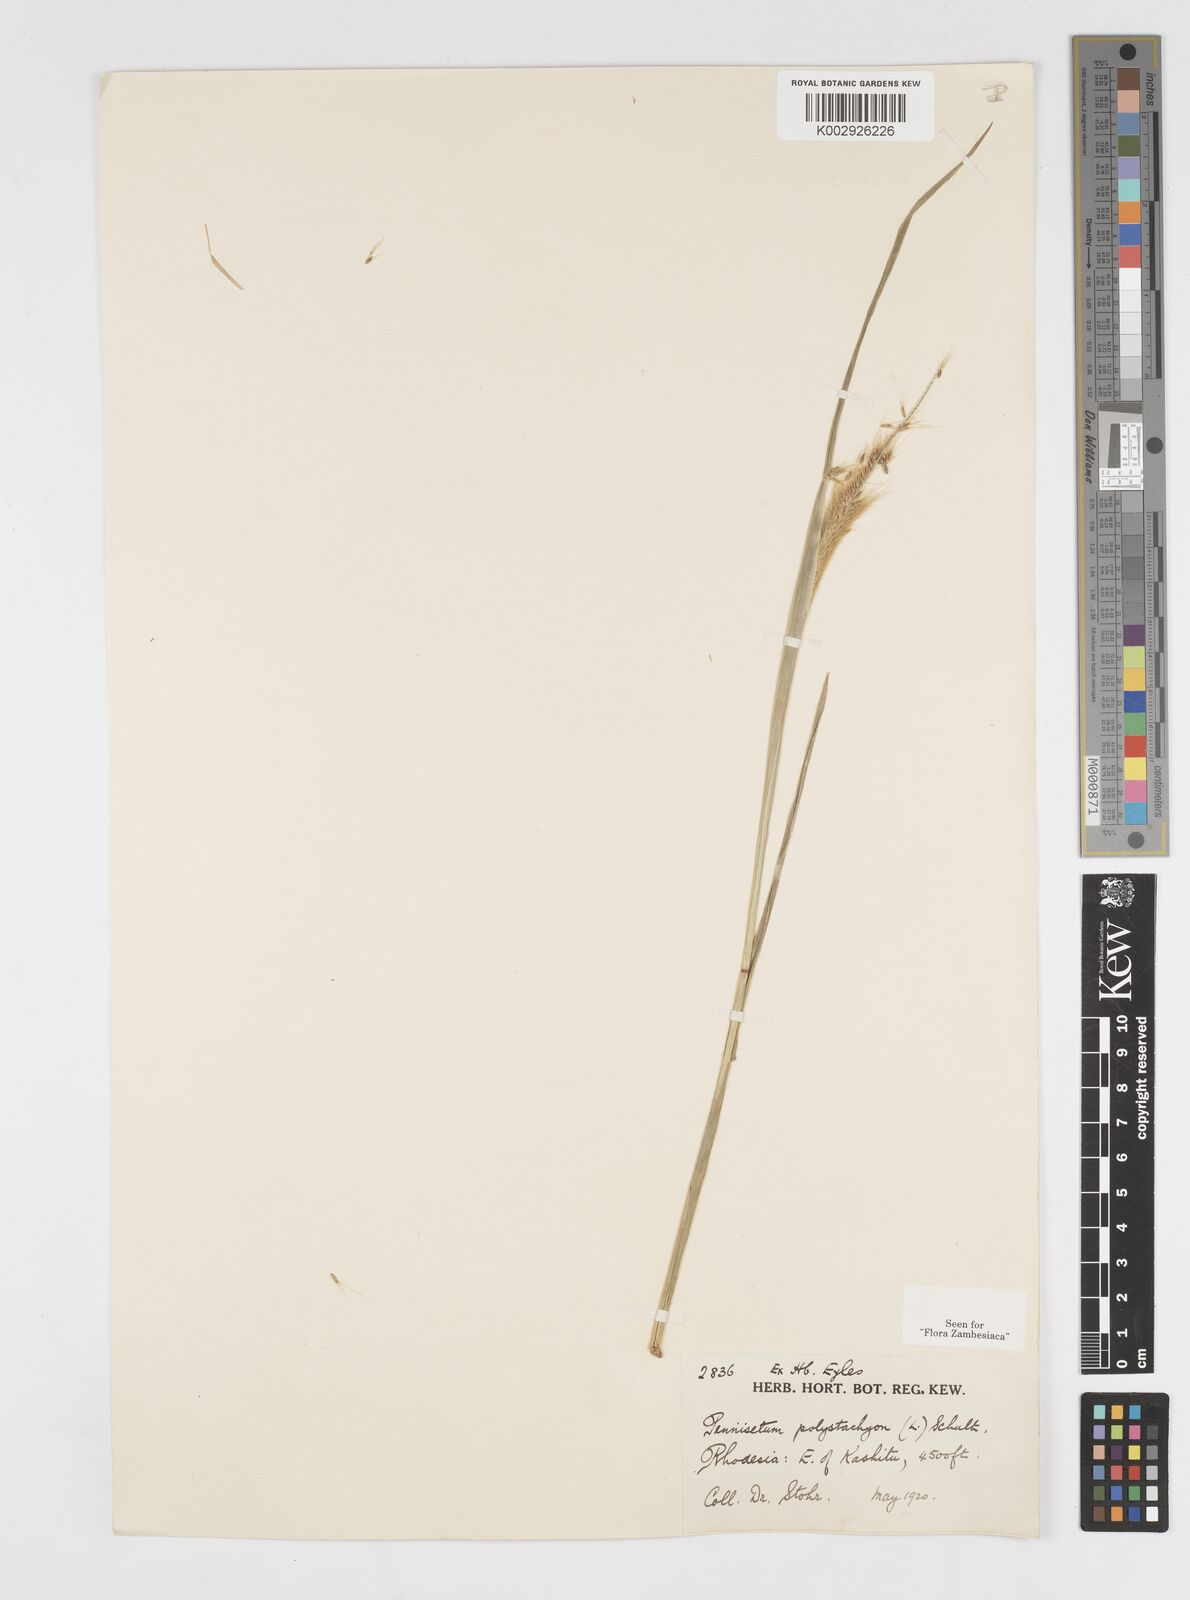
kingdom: Plantae
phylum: Tracheophyta
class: Liliopsida
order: Poales
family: Poaceae
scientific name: Poaceae
